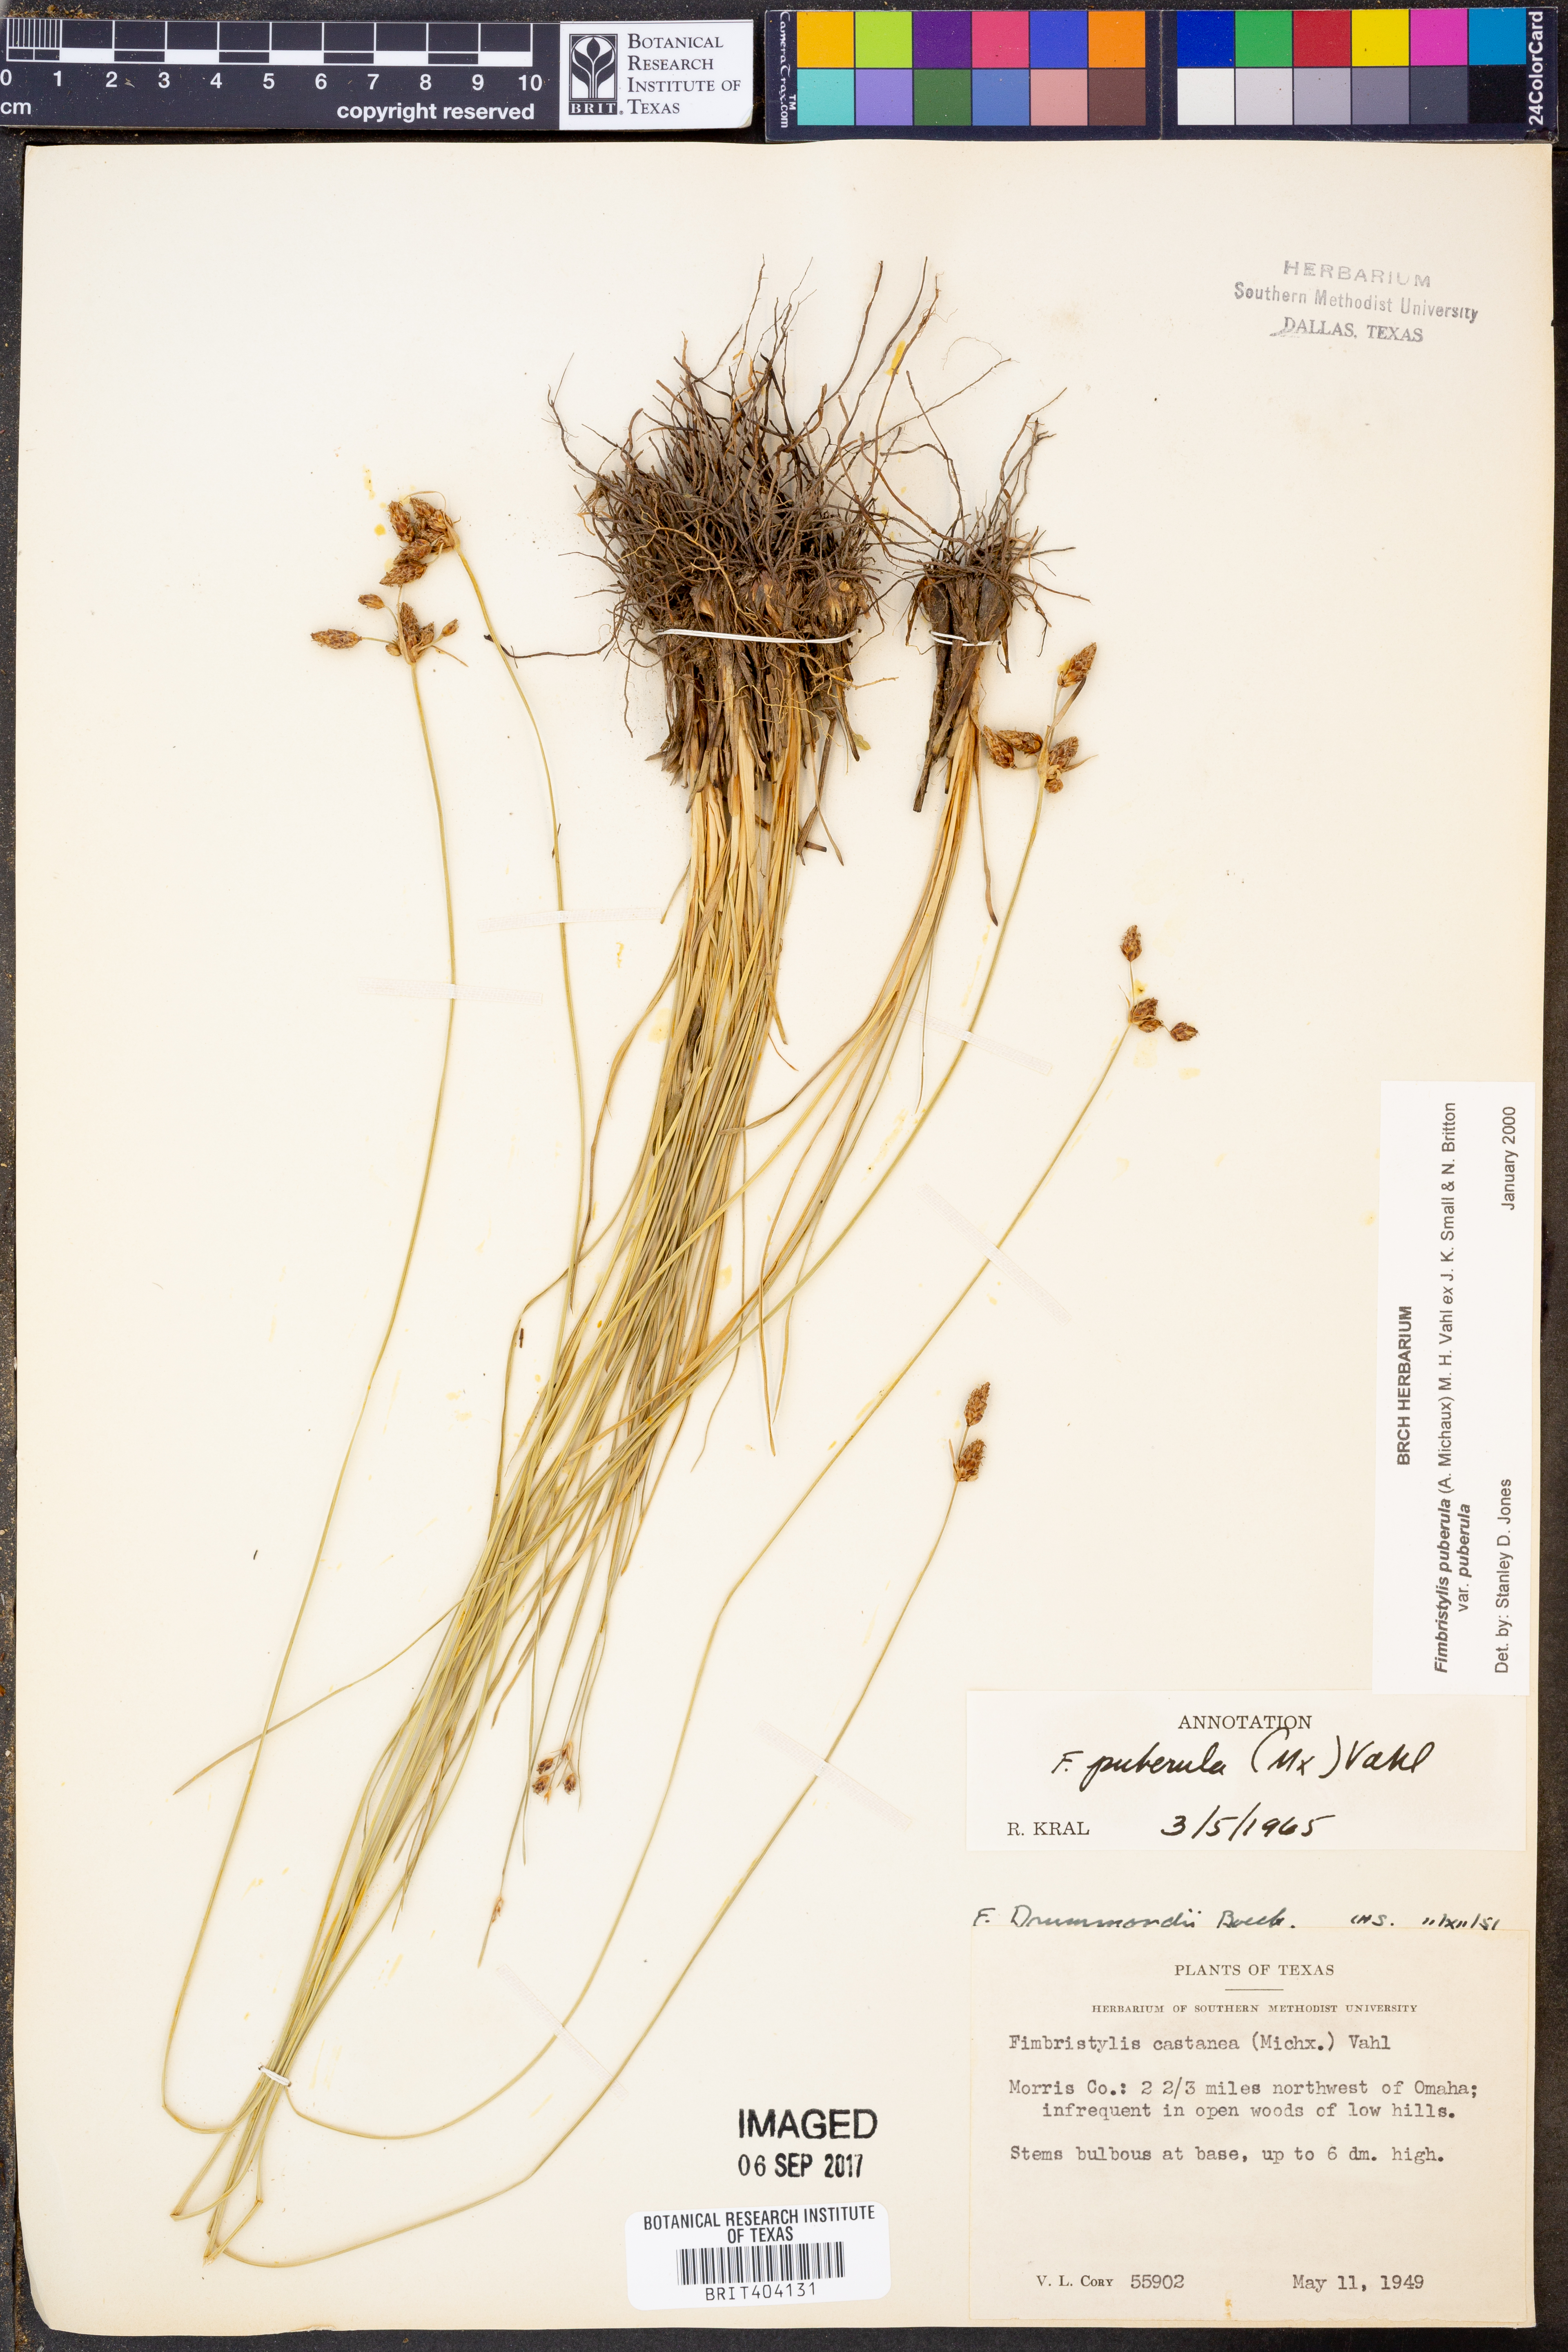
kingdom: Plantae
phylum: Tracheophyta
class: Liliopsida
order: Poales
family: Cyperaceae
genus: Fimbristylis
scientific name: Fimbristylis puberula
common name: Hairy fimbristylis
